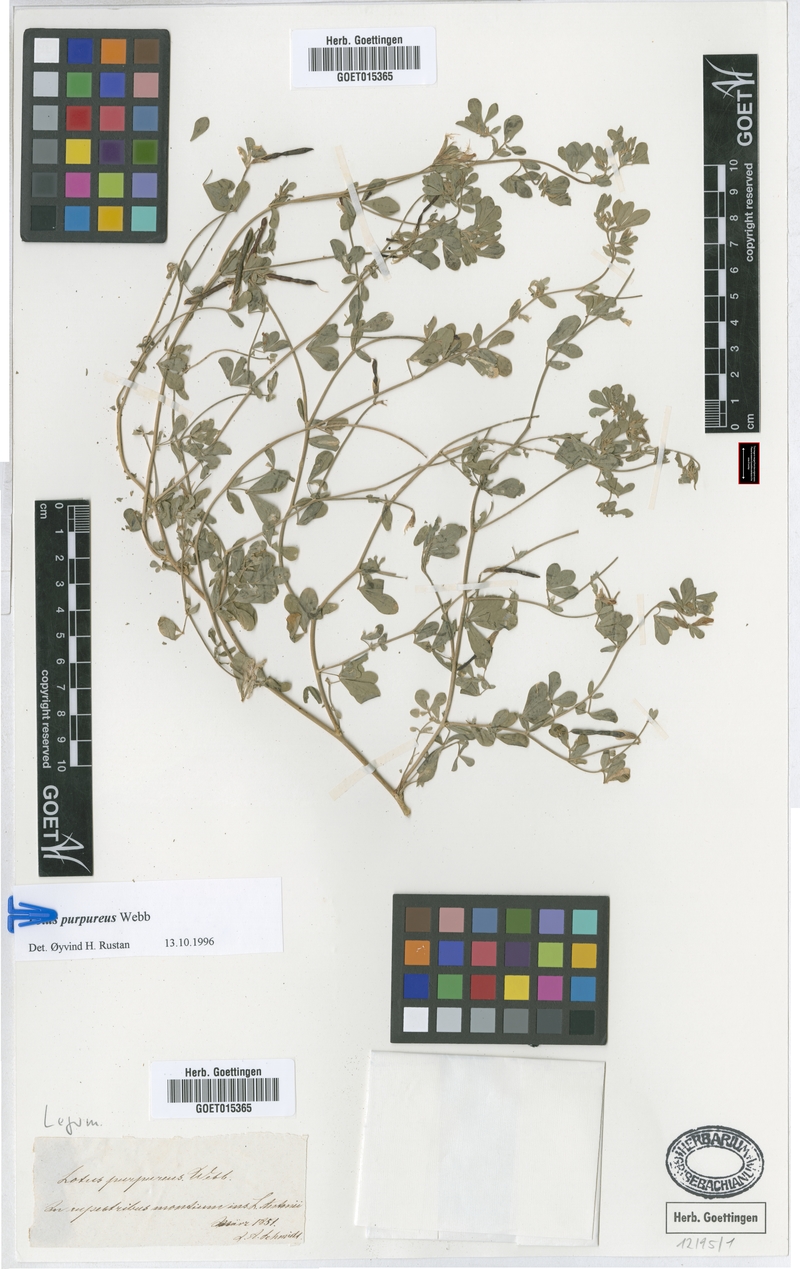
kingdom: Plantae
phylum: Tracheophyta
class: Magnoliopsida
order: Fabales
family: Fabaceae
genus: Lotus
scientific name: Lotus purpureus
